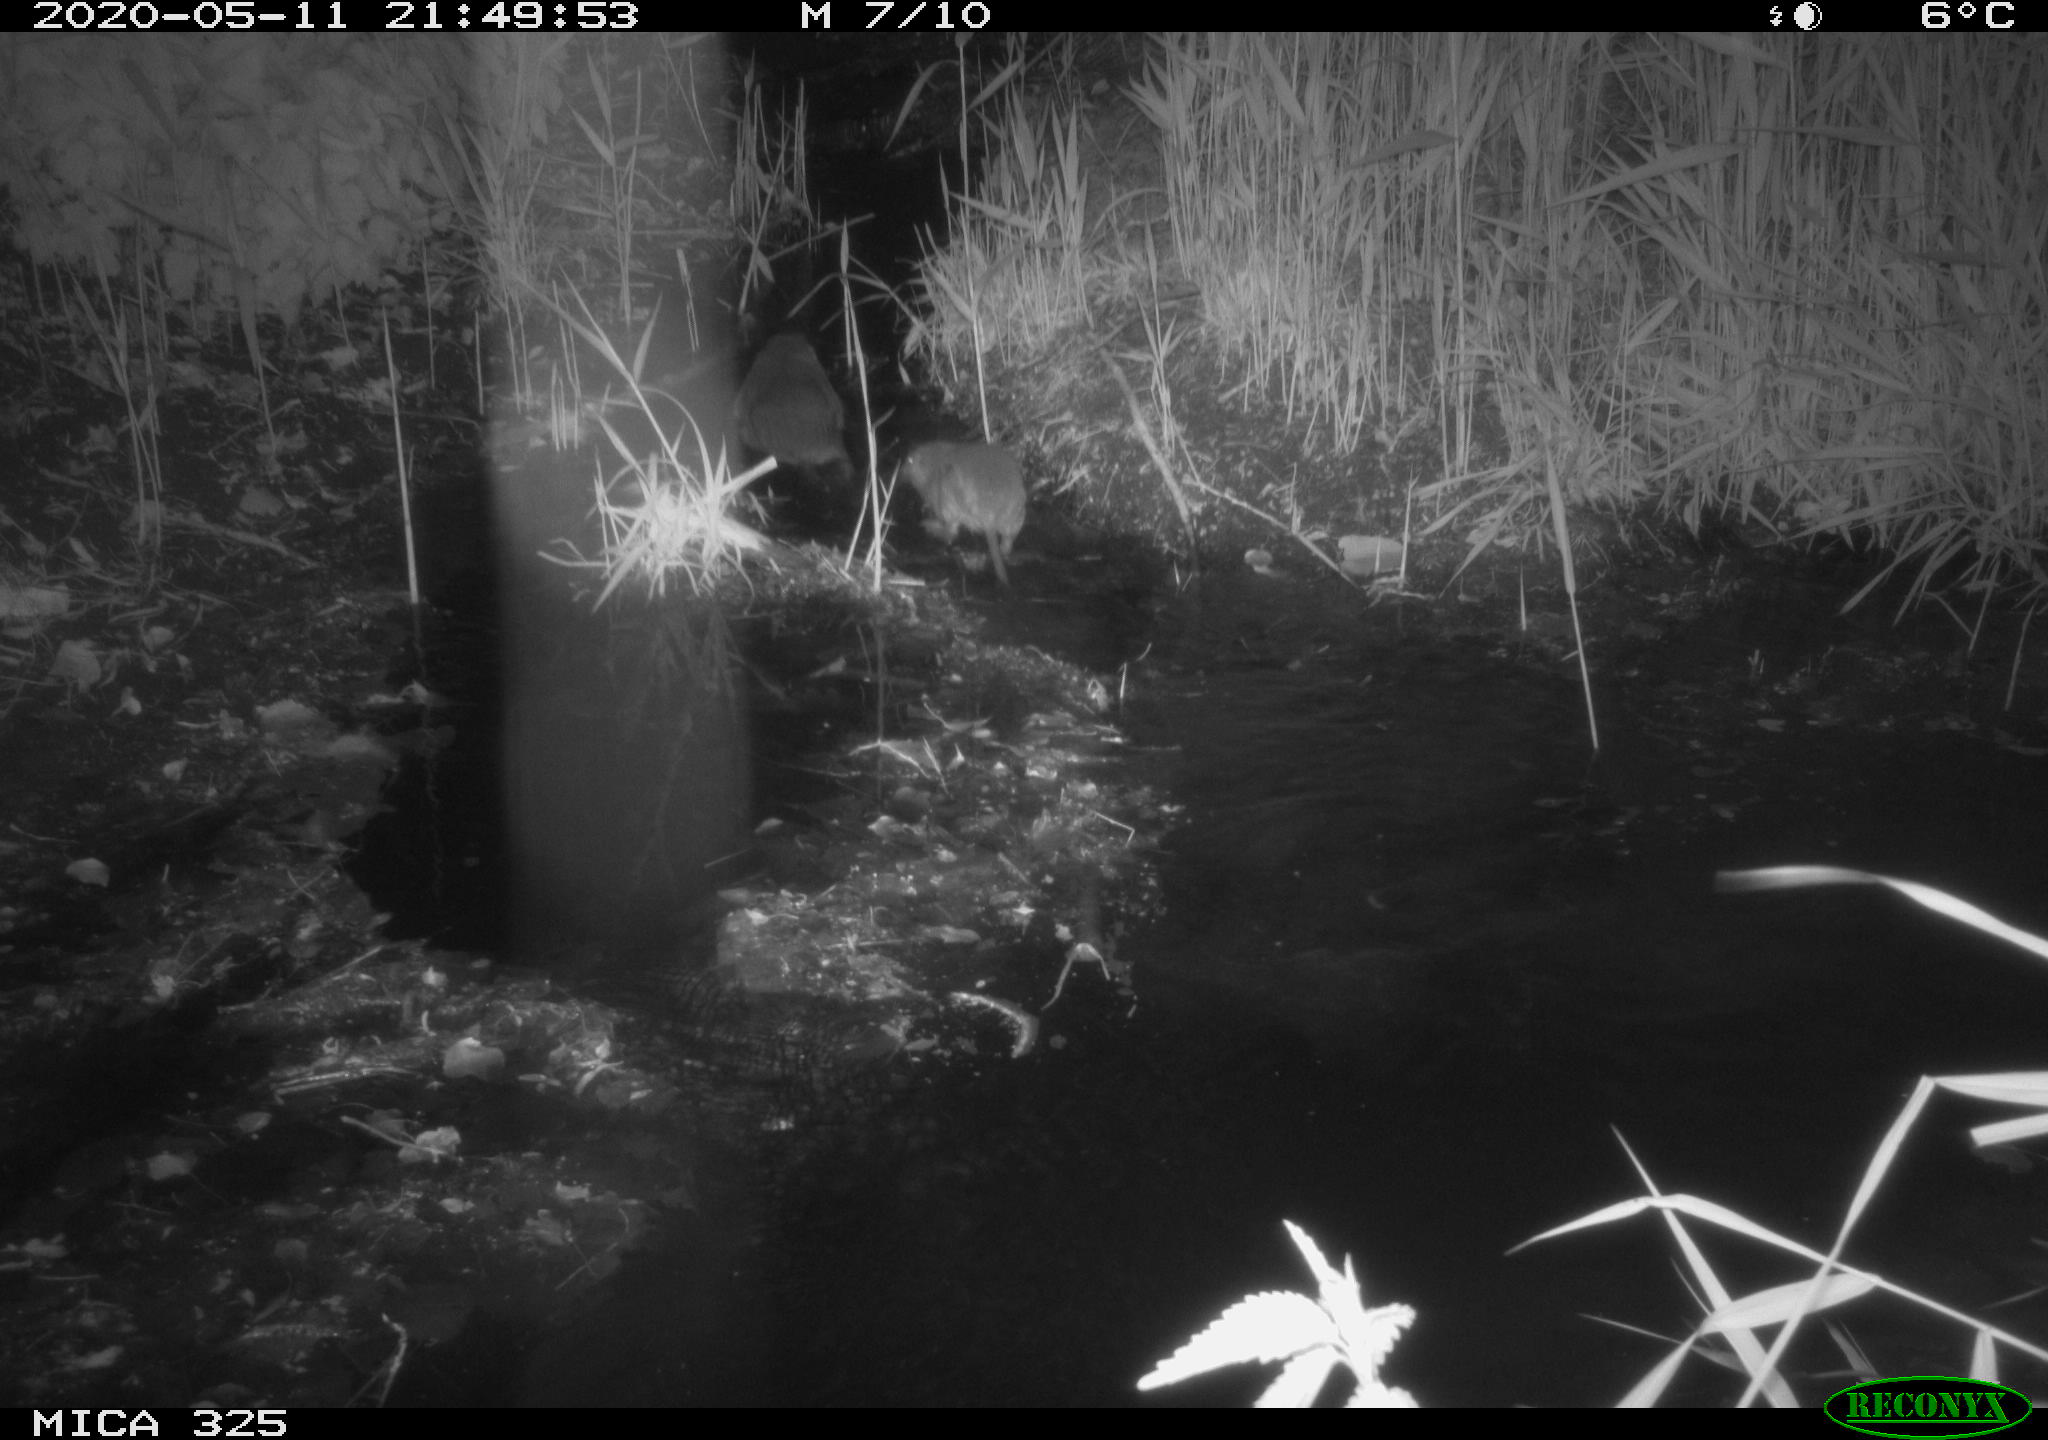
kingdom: Animalia
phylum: Chordata
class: Mammalia
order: Rodentia
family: Myocastoridae
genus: Myocastor
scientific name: Myocastor coypus
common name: Coypu
